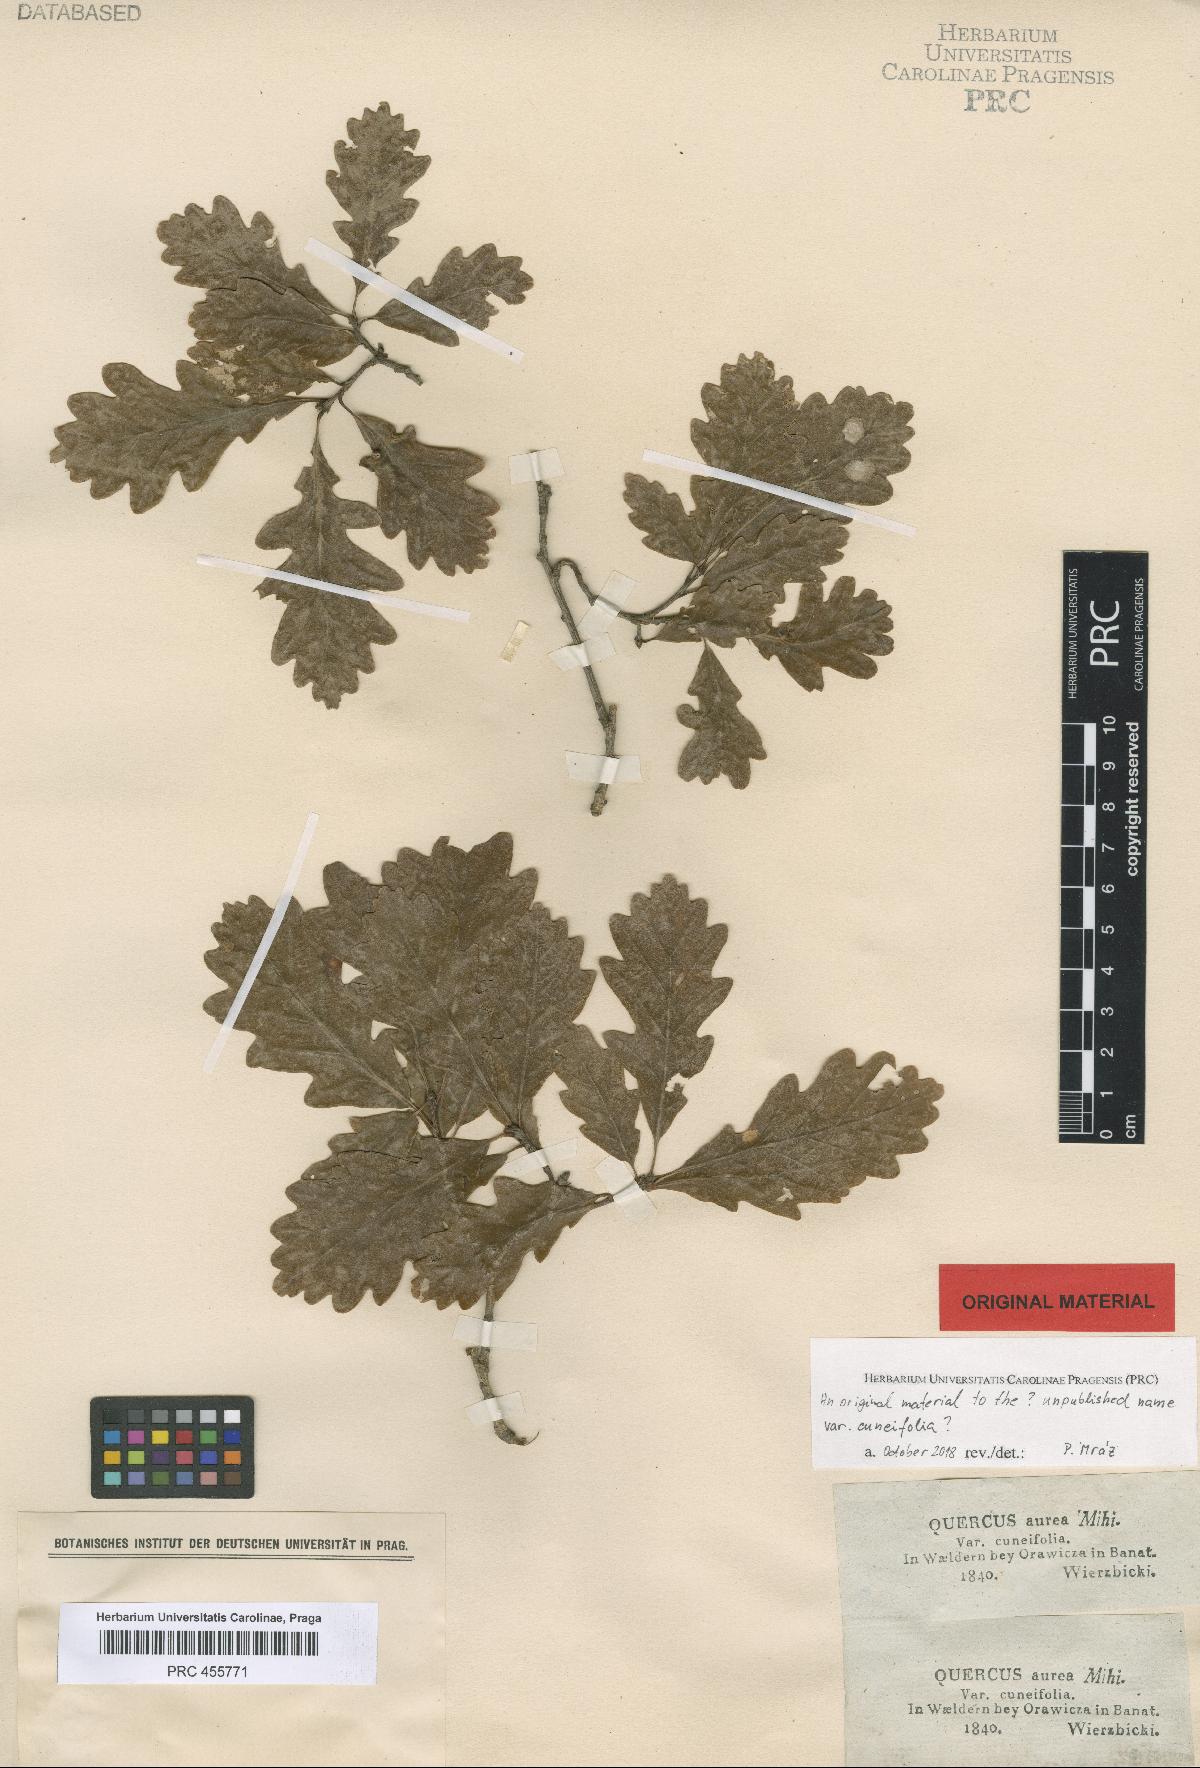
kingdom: Plantae
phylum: Tracheophyta
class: Magnoliopsida
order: Fagales
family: Fagaceae
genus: Quercus
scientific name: Quercus dalechampii
